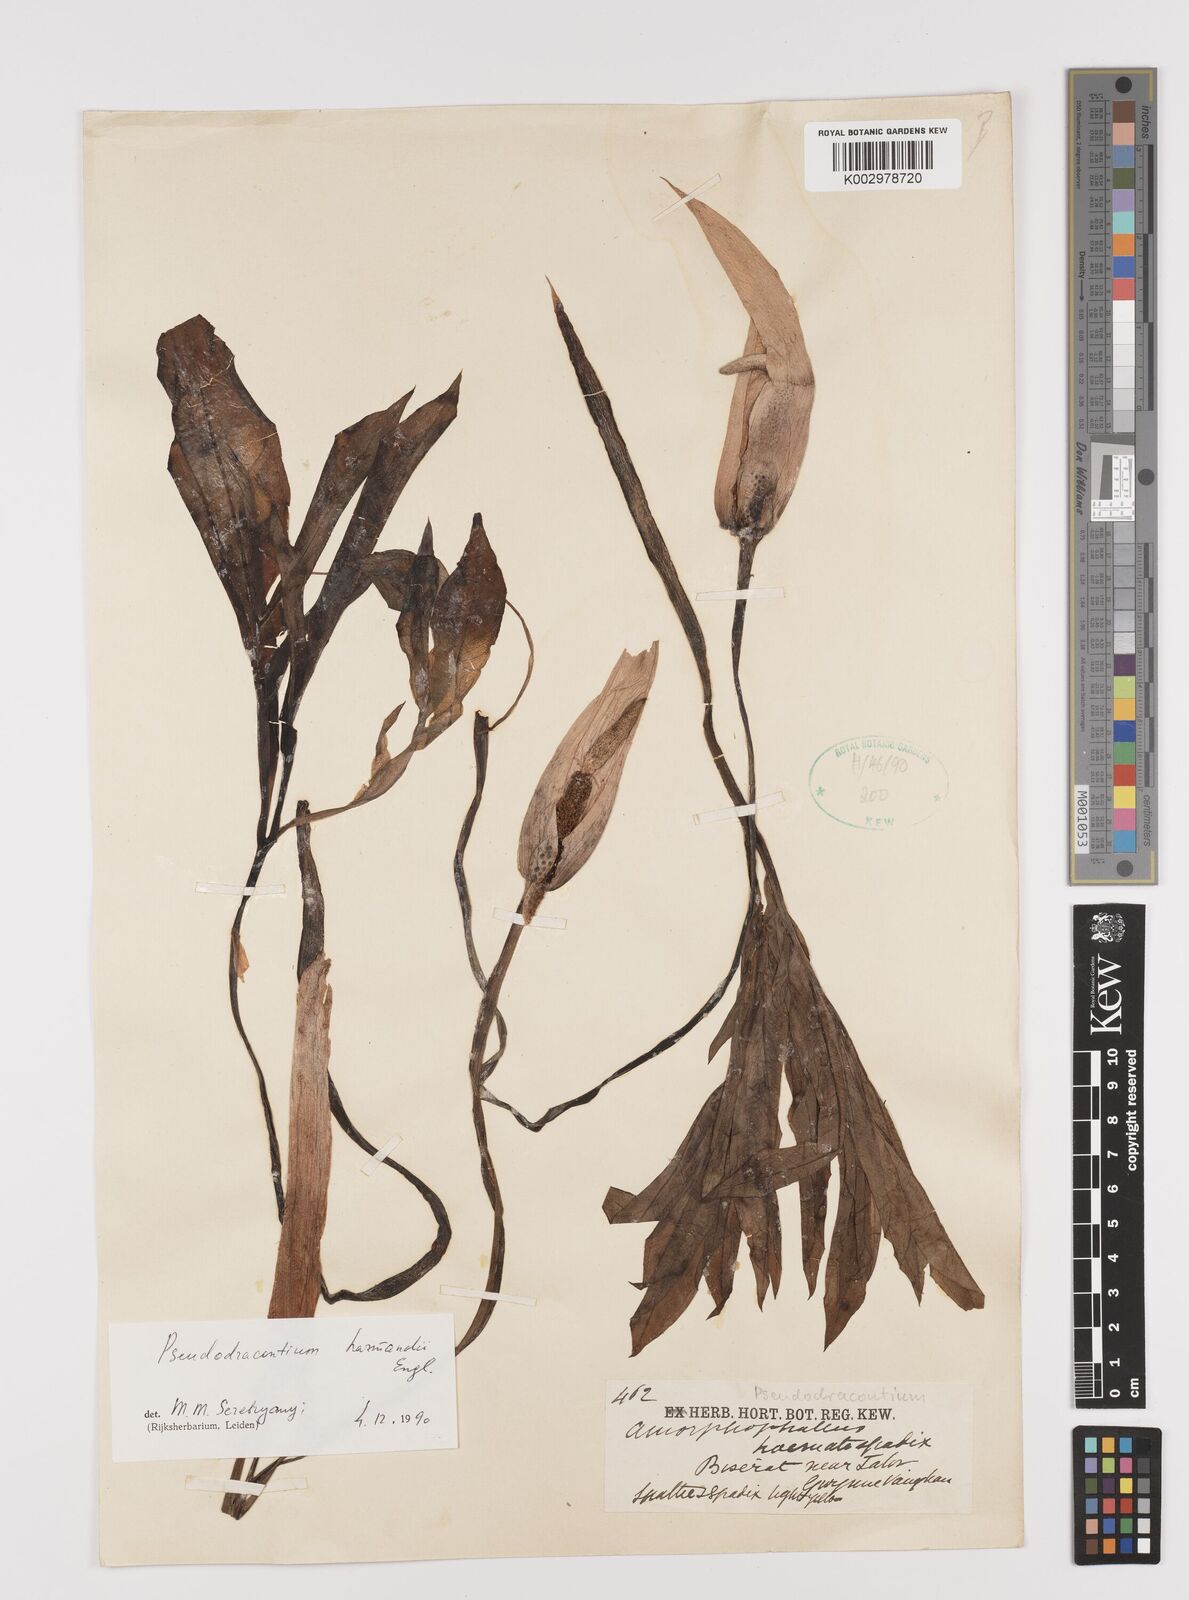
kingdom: Plantae
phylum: Tracheophyta
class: Liliopsida
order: Alismatales
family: Araceae
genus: Amorphophallus
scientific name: Amorphophallus harmandii
